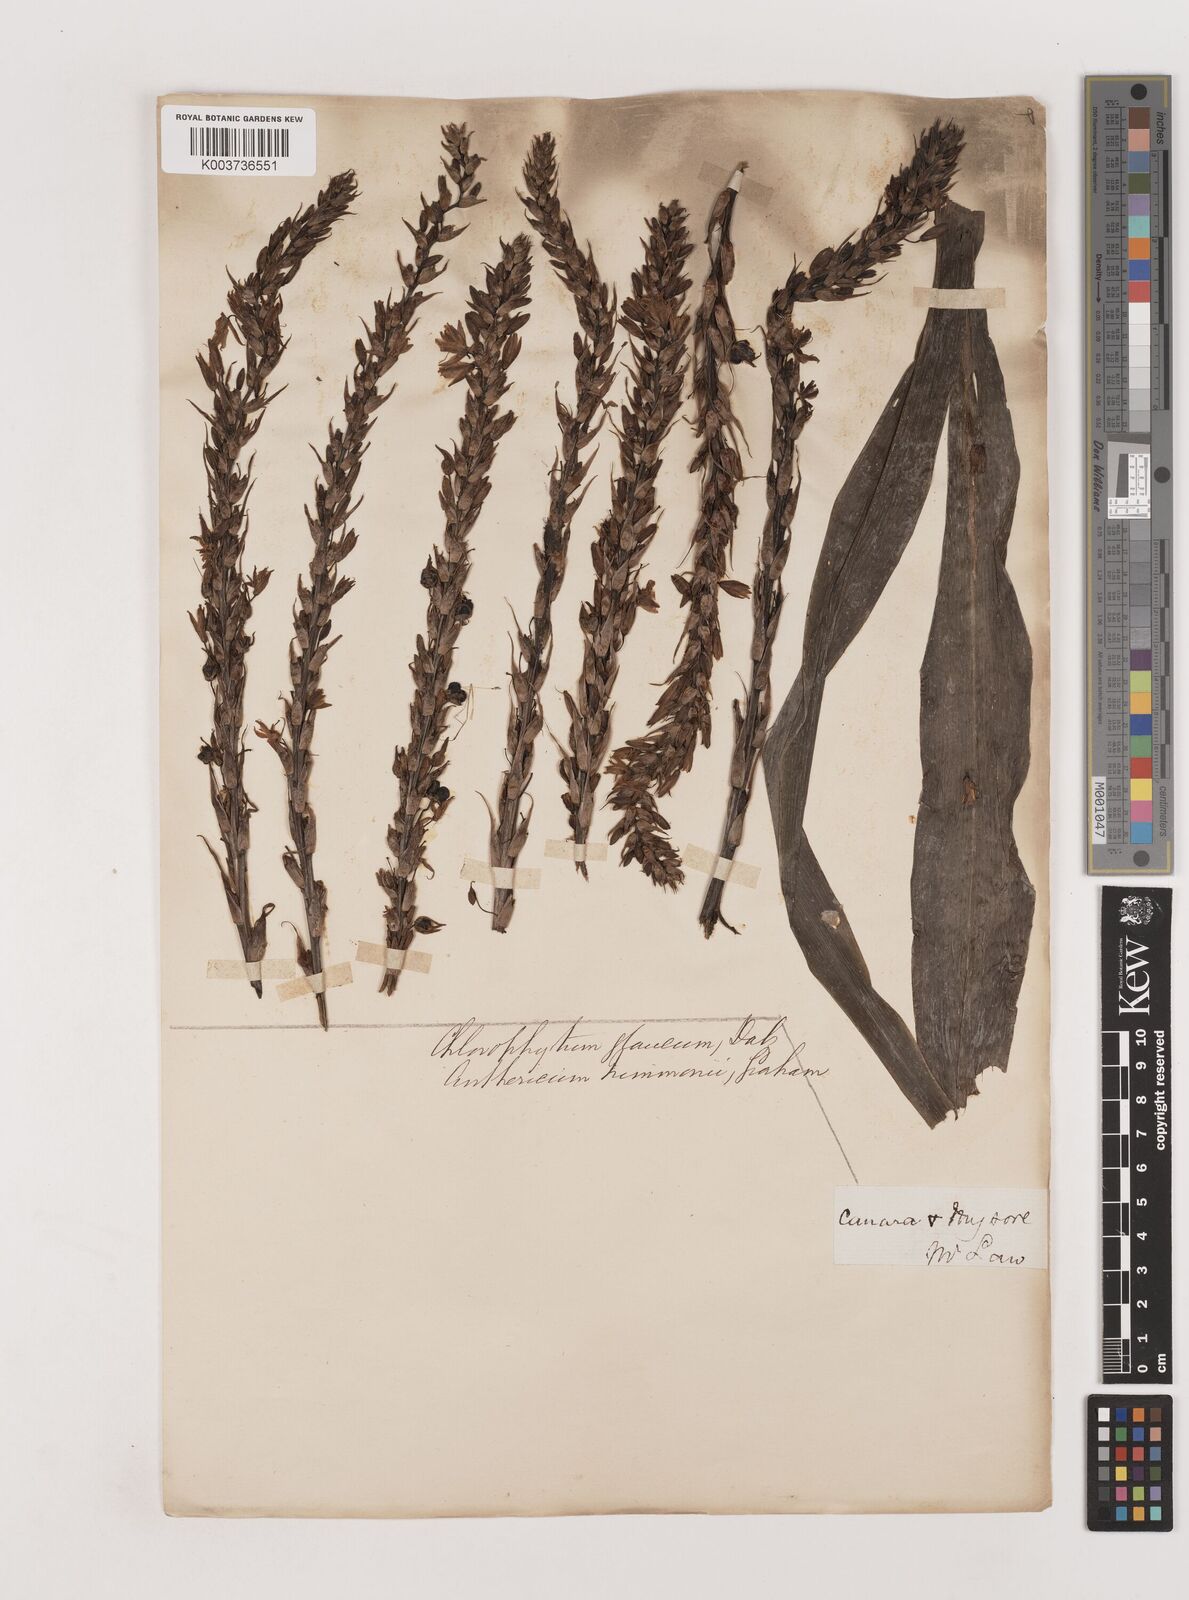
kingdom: Plantae
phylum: Tracheophyta
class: Liliopsida
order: Asparagales
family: Asparagaceae
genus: Chlorophytum
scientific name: Chlorophytum glaucum
